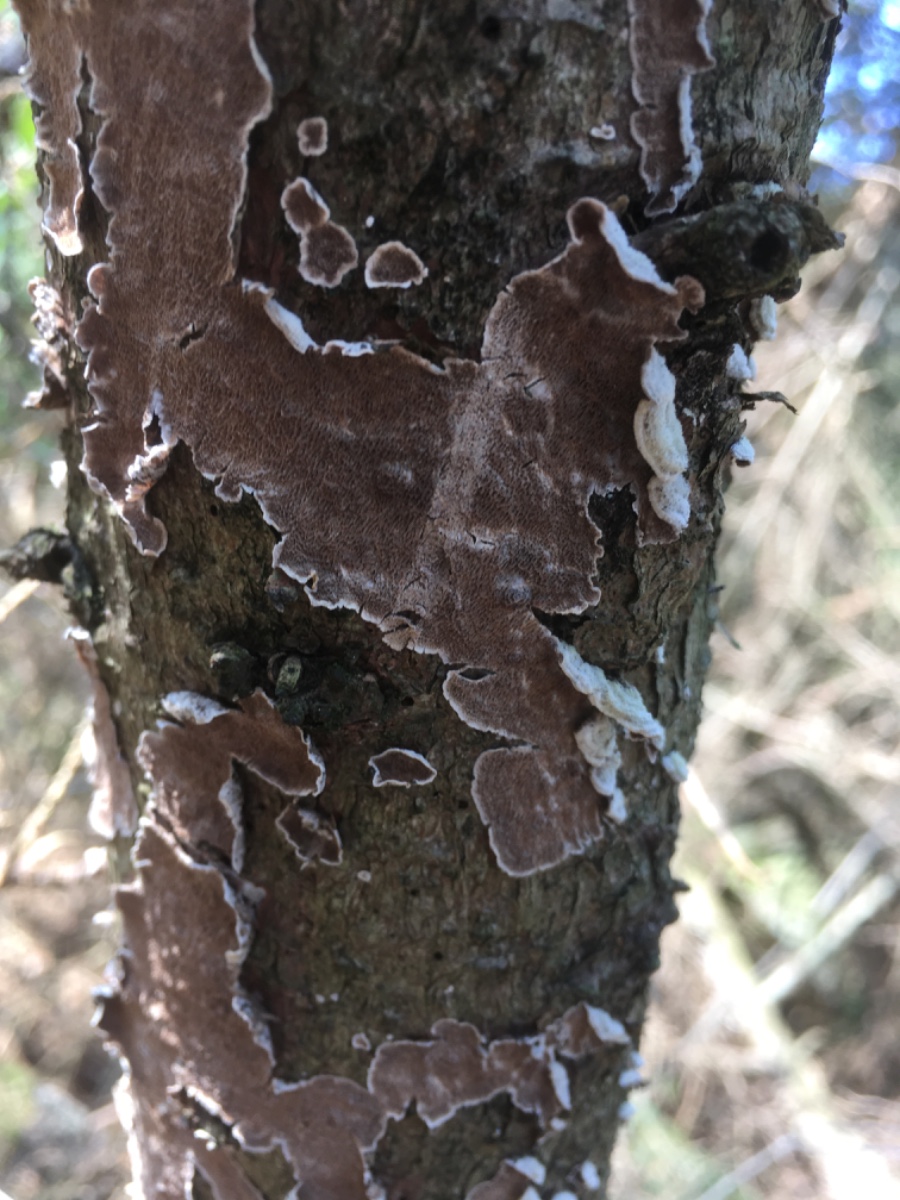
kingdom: Fungi
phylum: Basidiomycota
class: Agaricomycetes
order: Hymenochaetales
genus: Trichaptum
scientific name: Trichaptum abietinum
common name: almindelig violporesvamp
